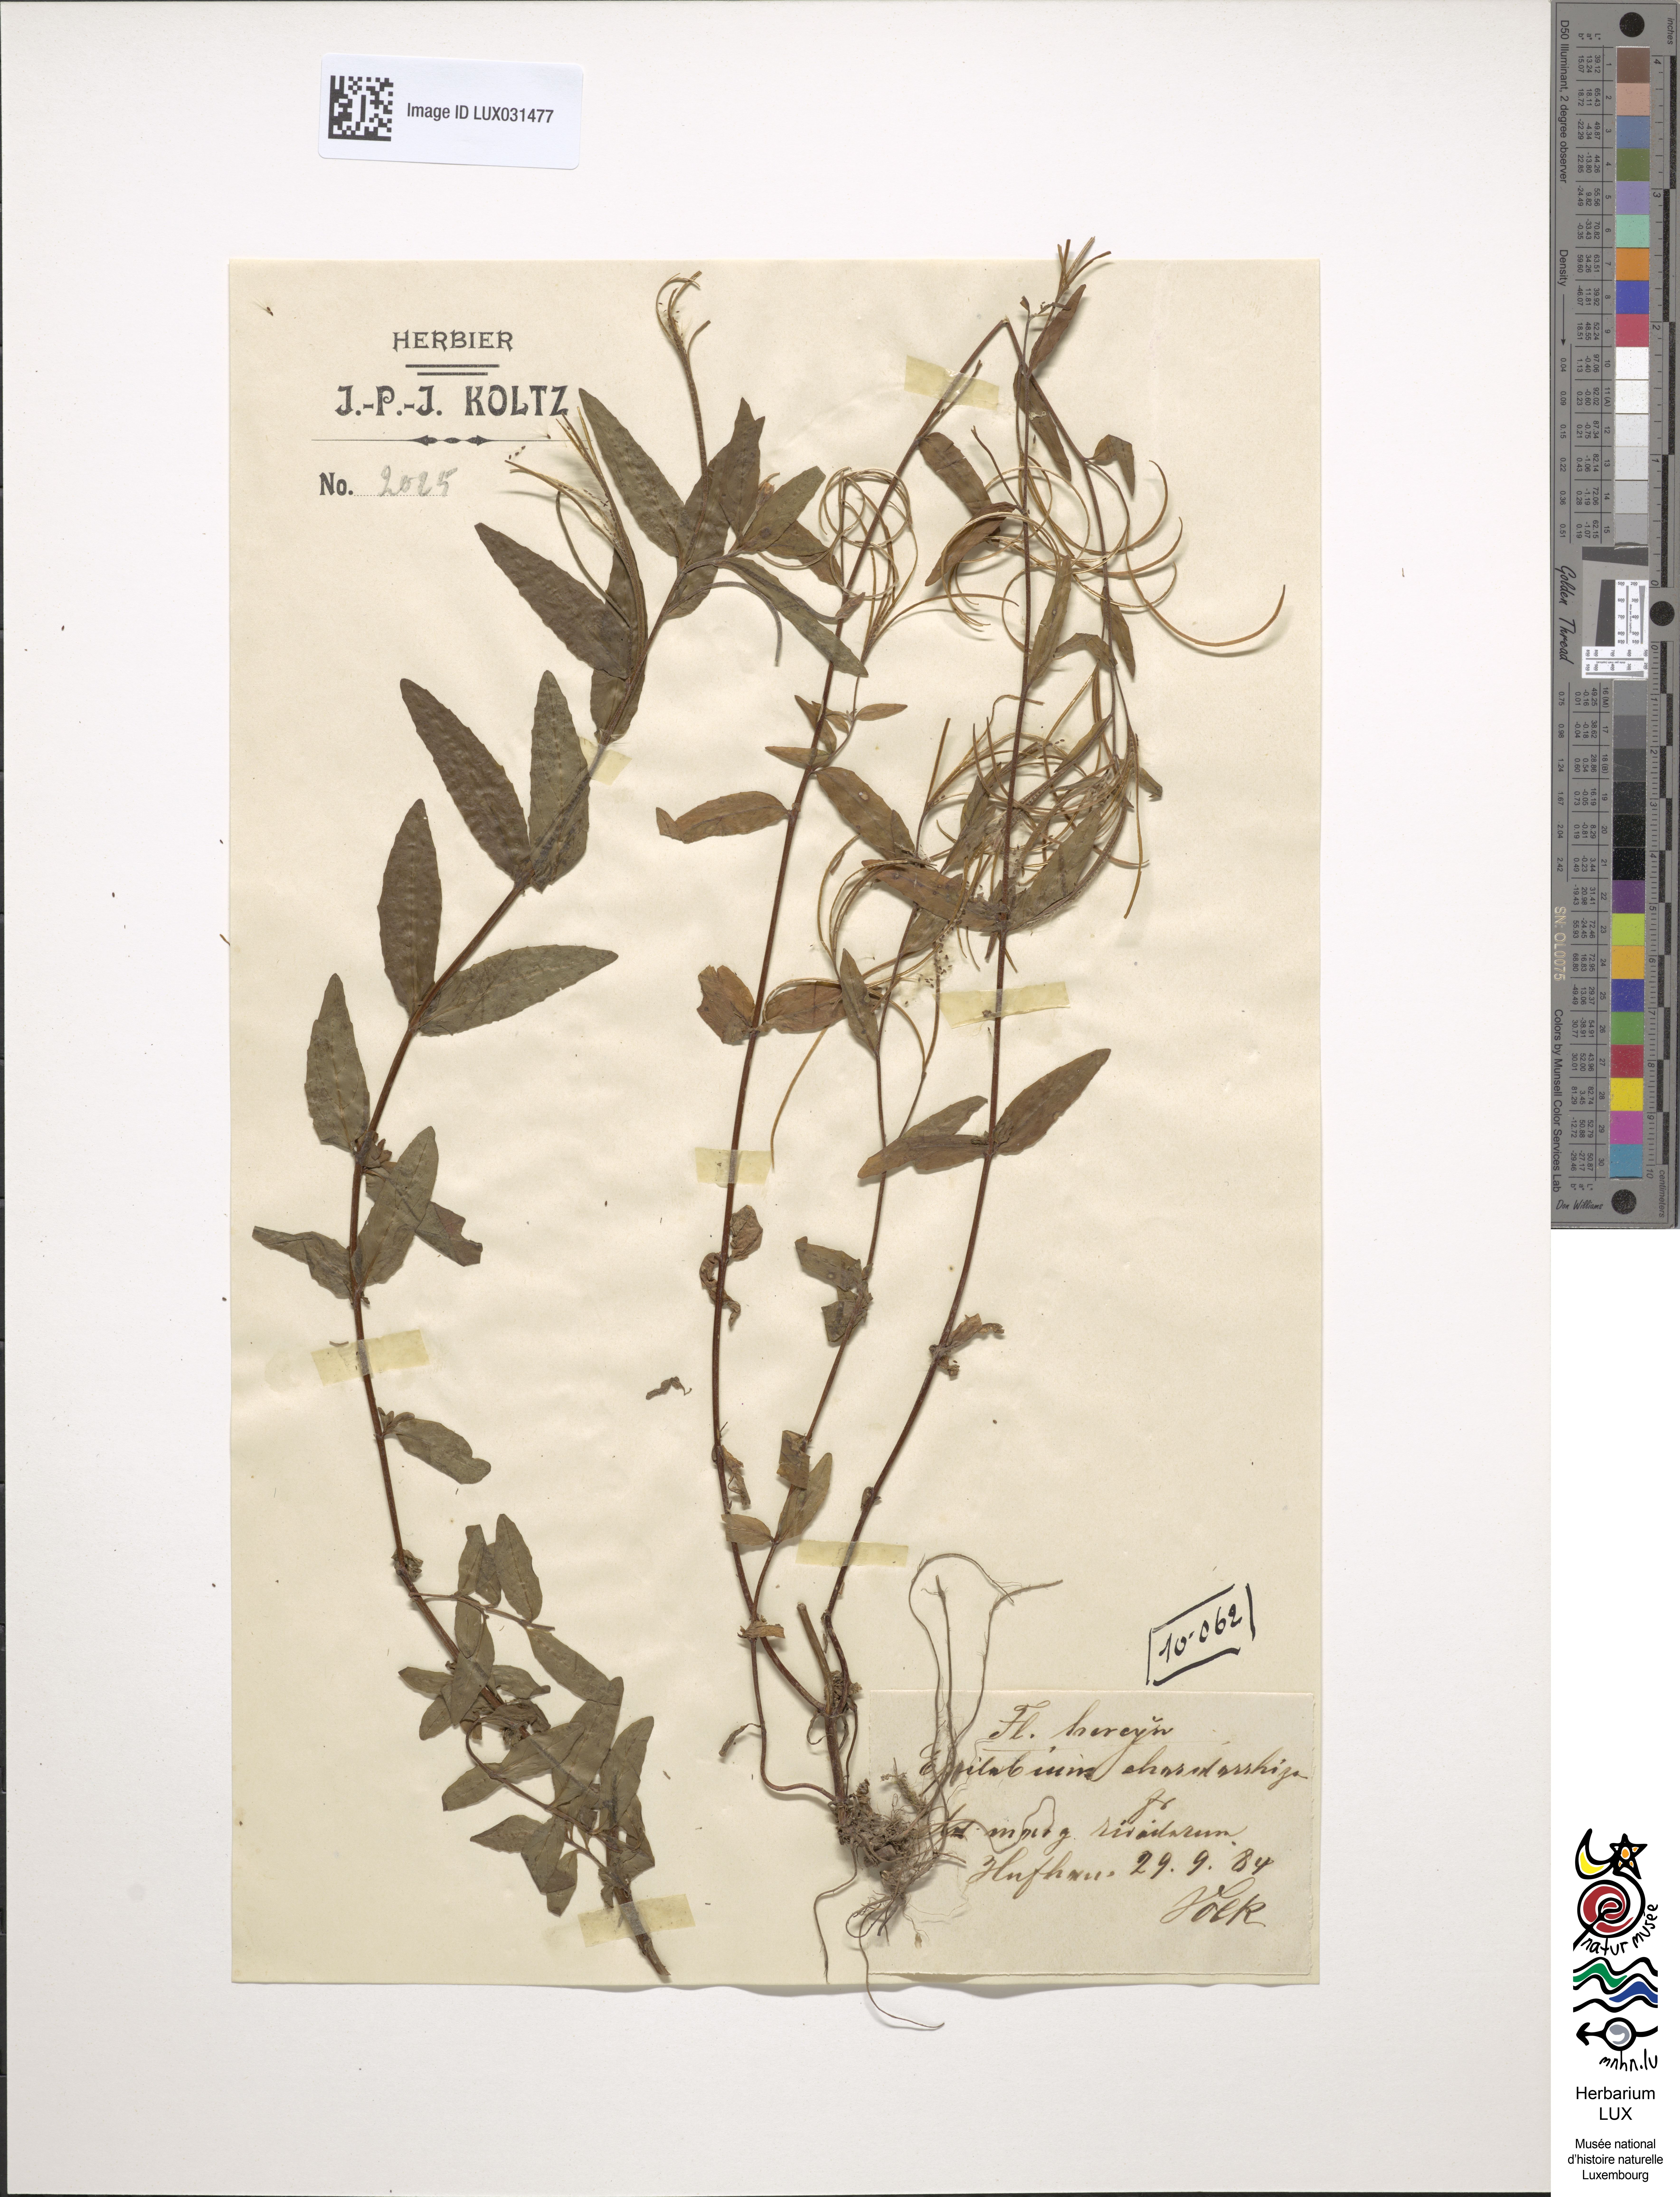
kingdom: Plantae
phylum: Tracheophyta
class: Magnoliopsida
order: Myrtales
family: Onagraceae
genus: Epilobium
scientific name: Epilobium obscurum
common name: Short-fruited willowherb
